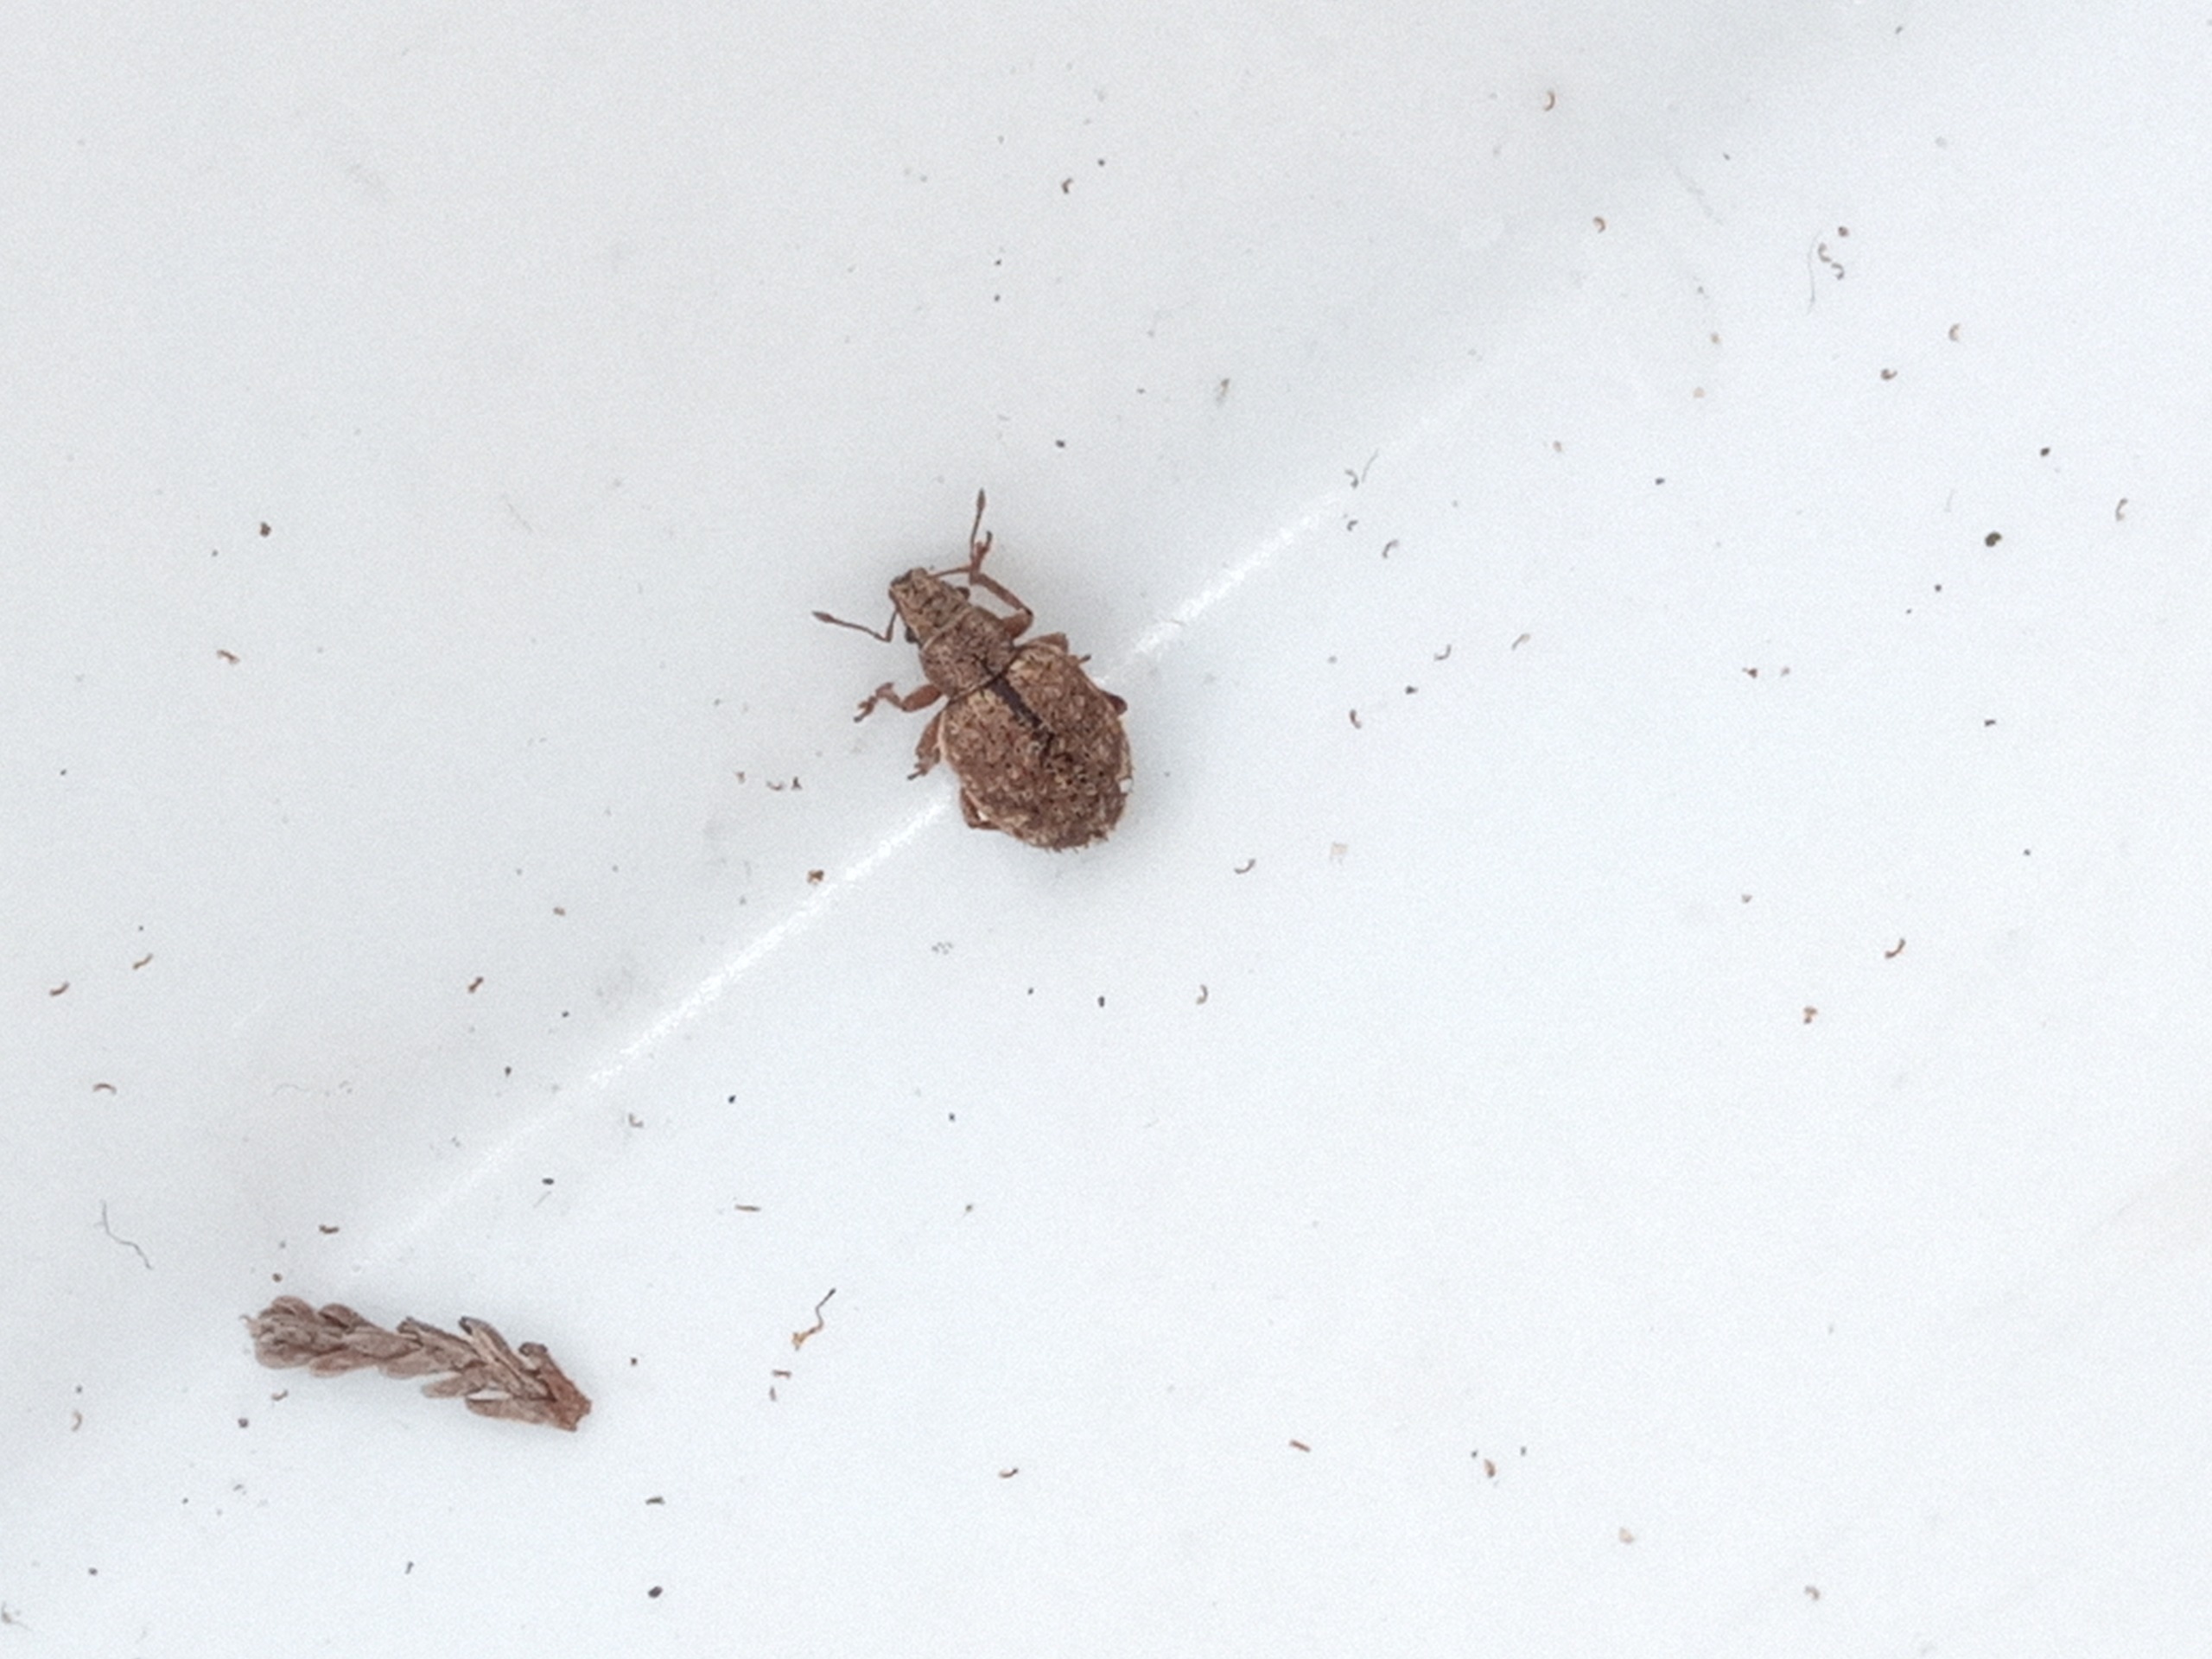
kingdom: Animalia
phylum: Arthropoda
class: Insecta
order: Coleoptera
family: Curculionidae
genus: Strophosoma
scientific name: Strophosoma melanogrammum
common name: Stribet gråsnude
